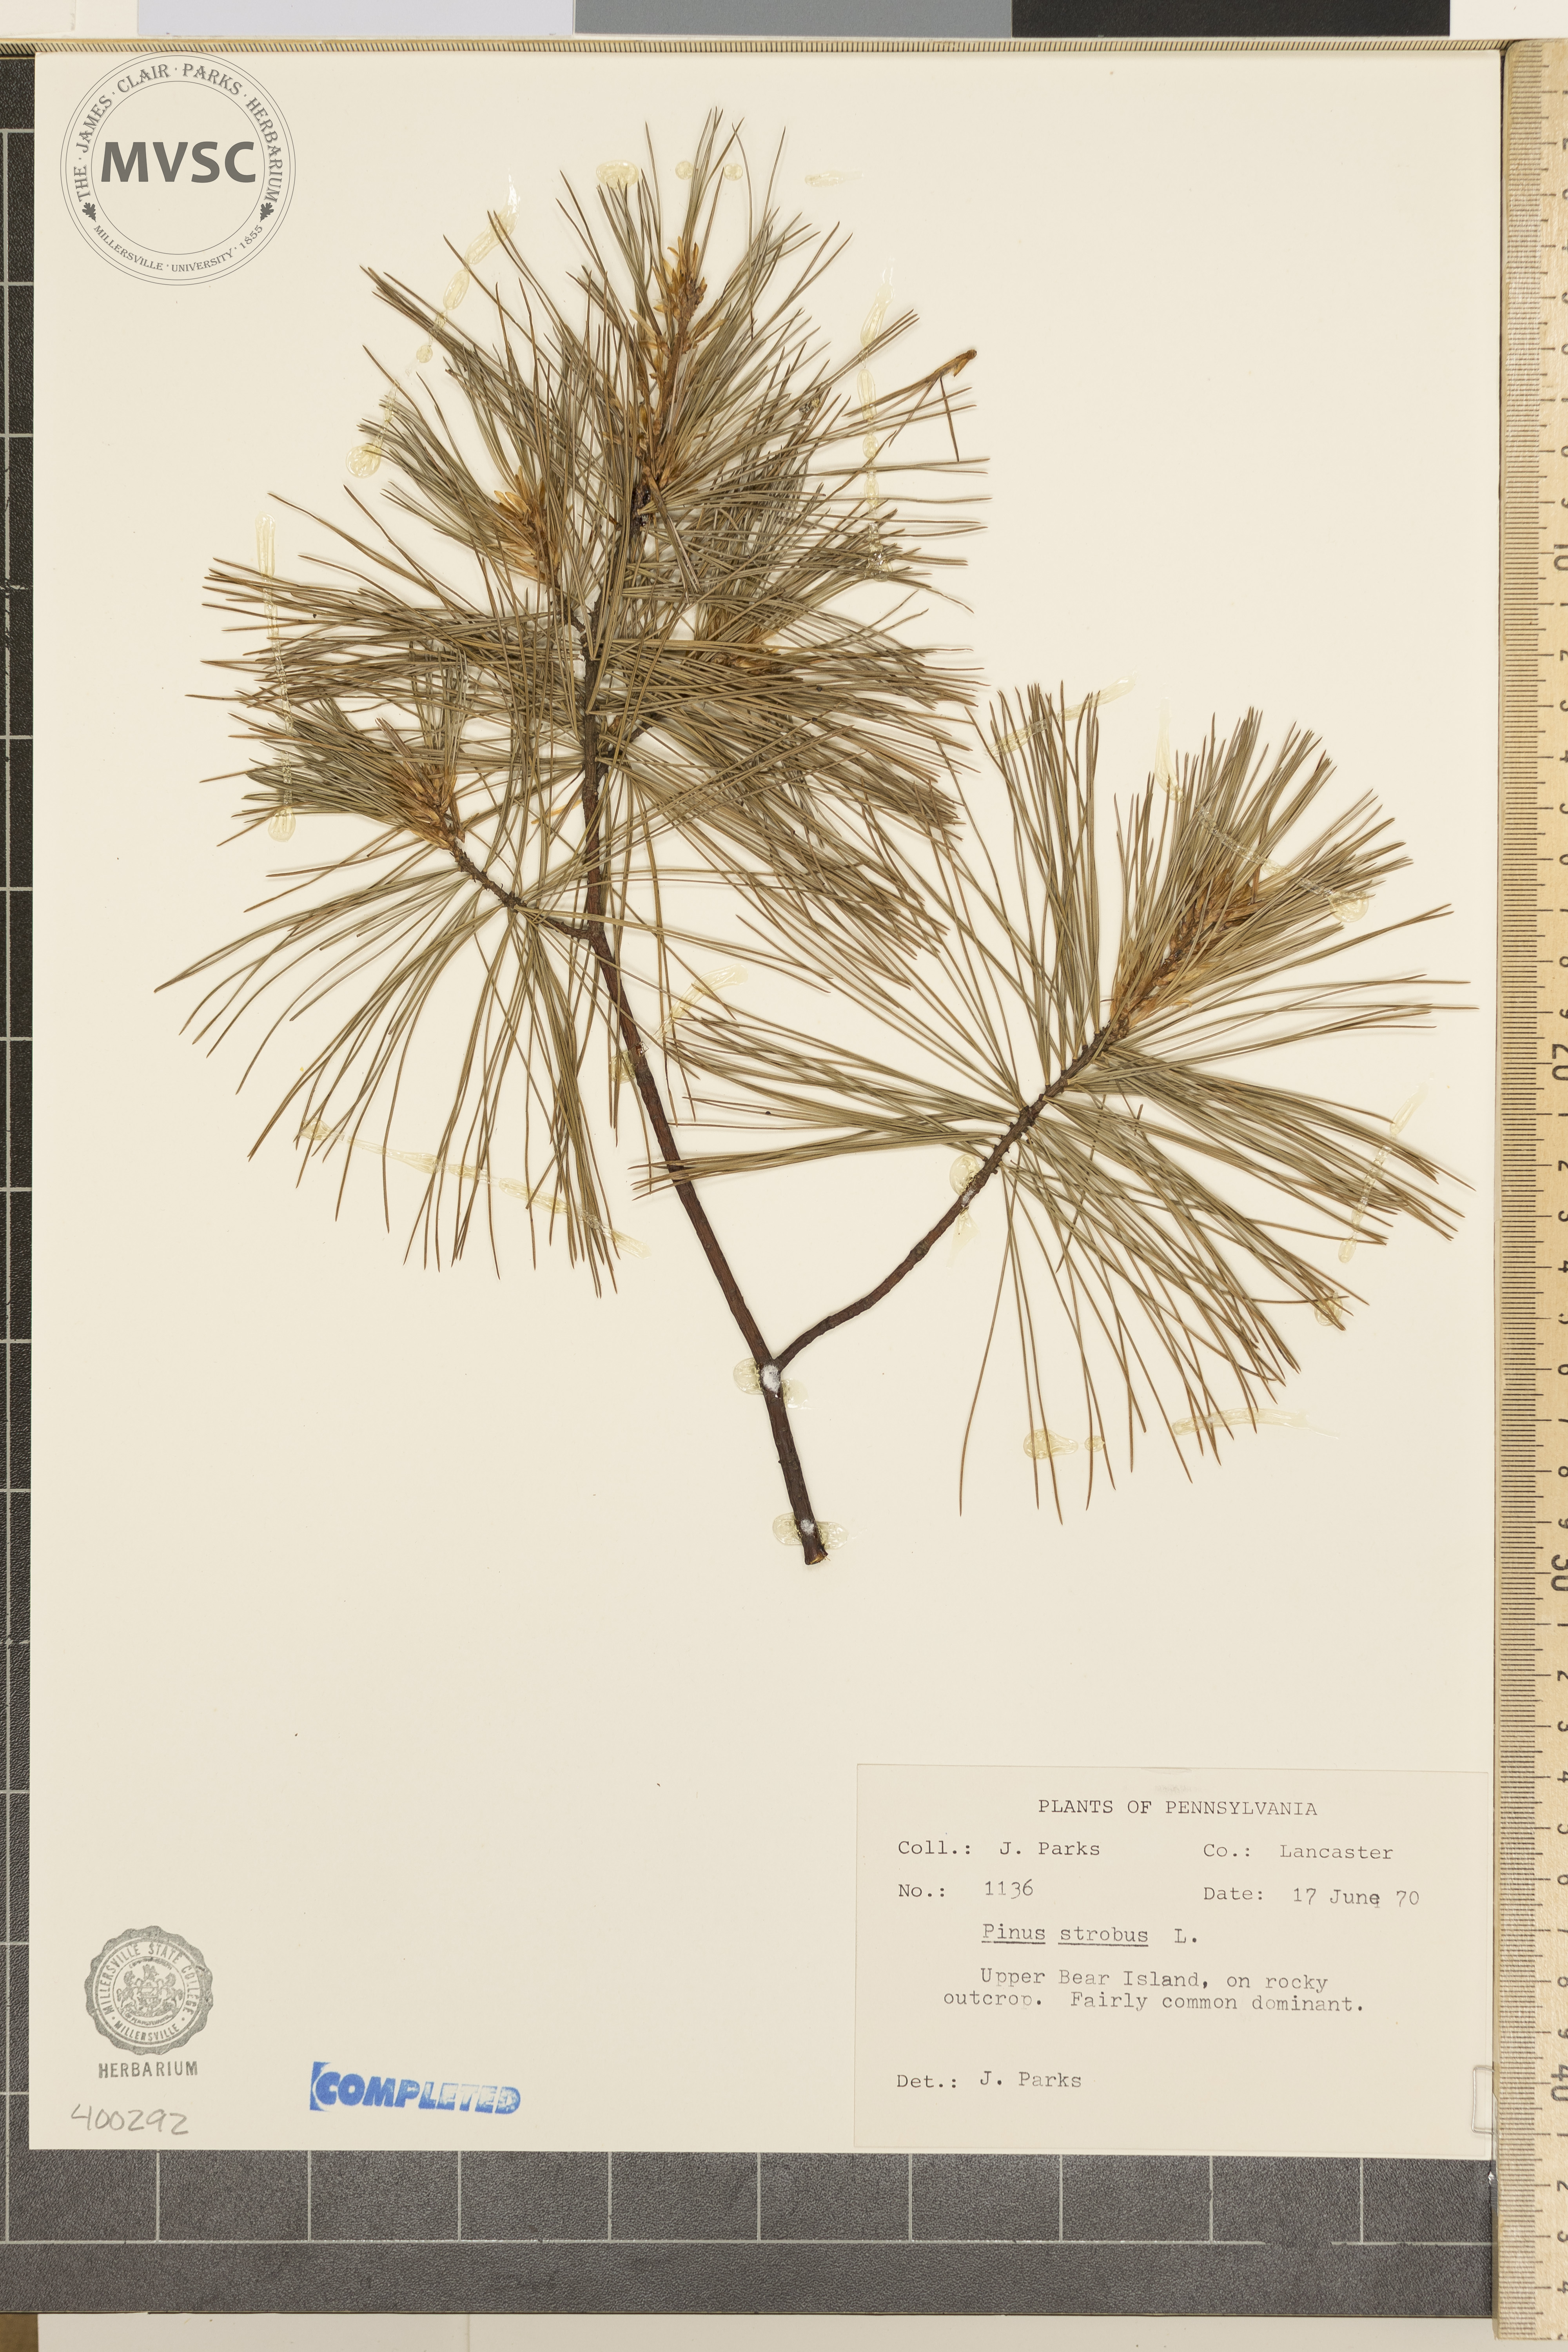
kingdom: Plantae
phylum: Tracheophyta
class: Pinopsida
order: Pinales
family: Pinaceae
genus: Pinus
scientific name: Pinus strobus
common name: Eastern white pine
